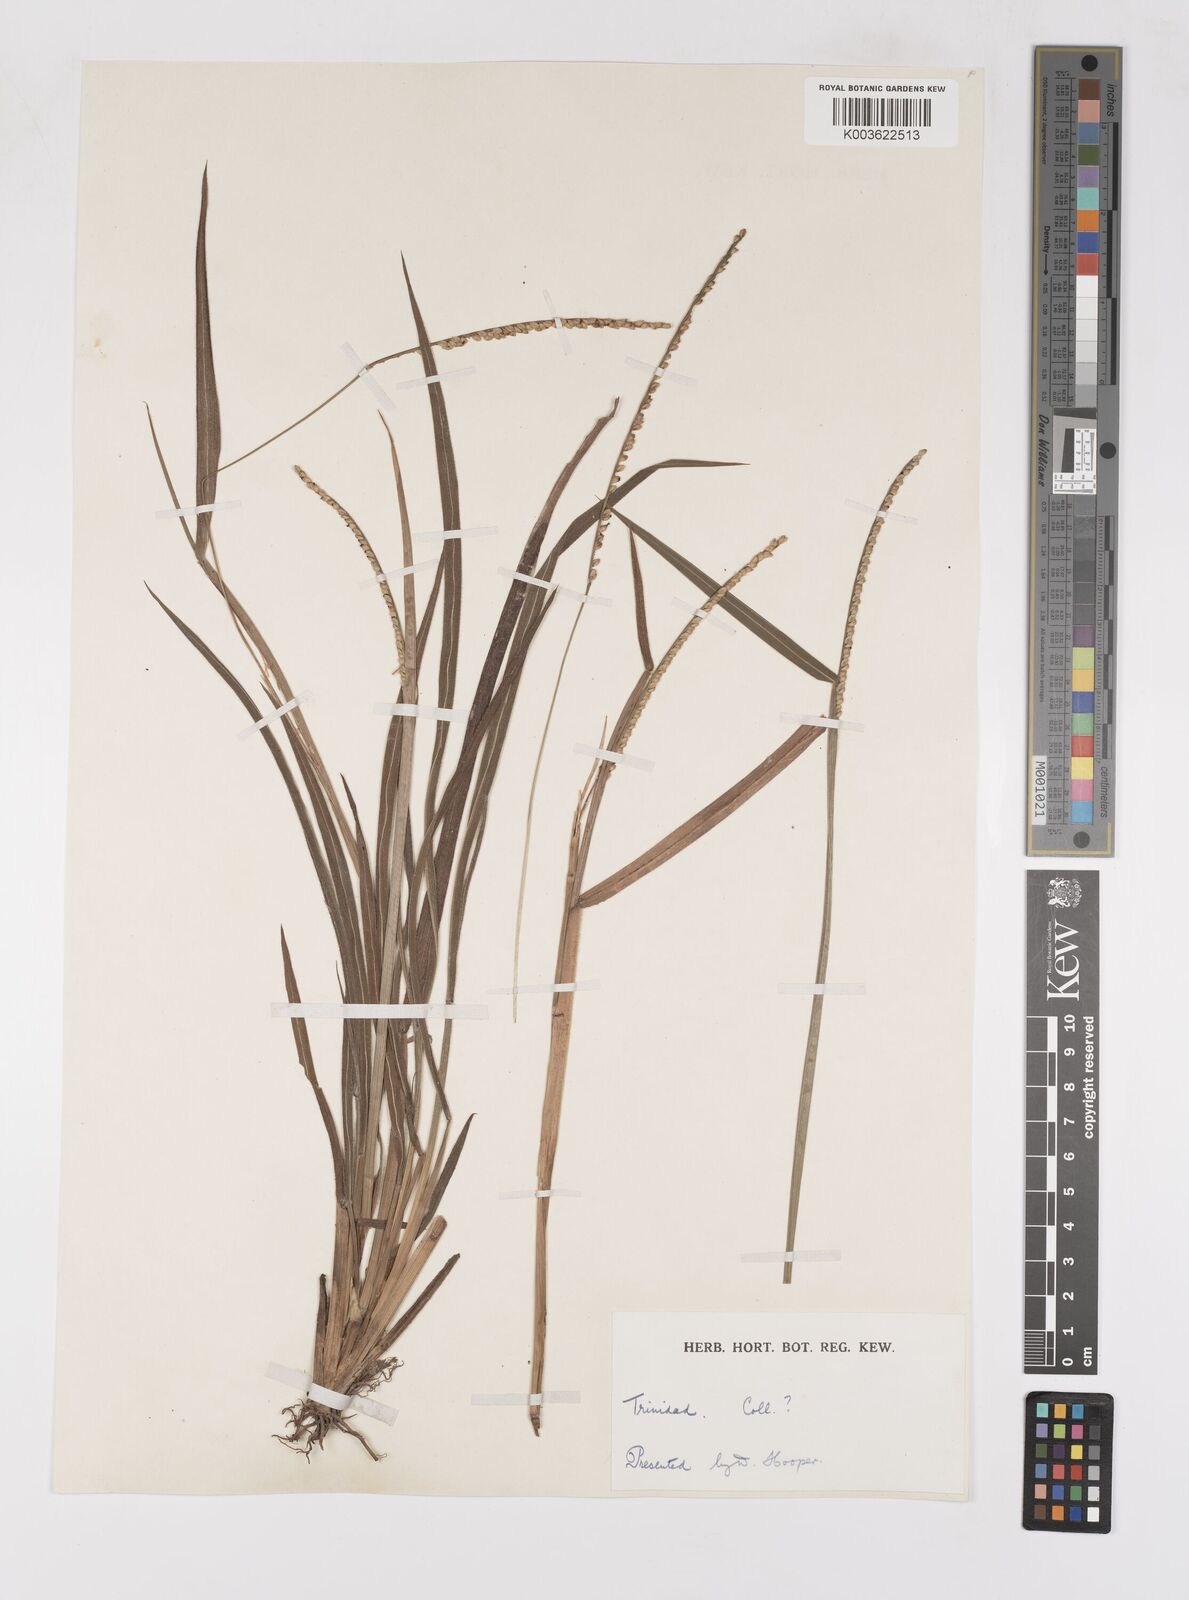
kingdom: Plantae
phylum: Tracheophyta
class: Liliopsida
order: Poales
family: Poaceae
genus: Paspalum
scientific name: Paspalum pilosum
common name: Crowngrass
